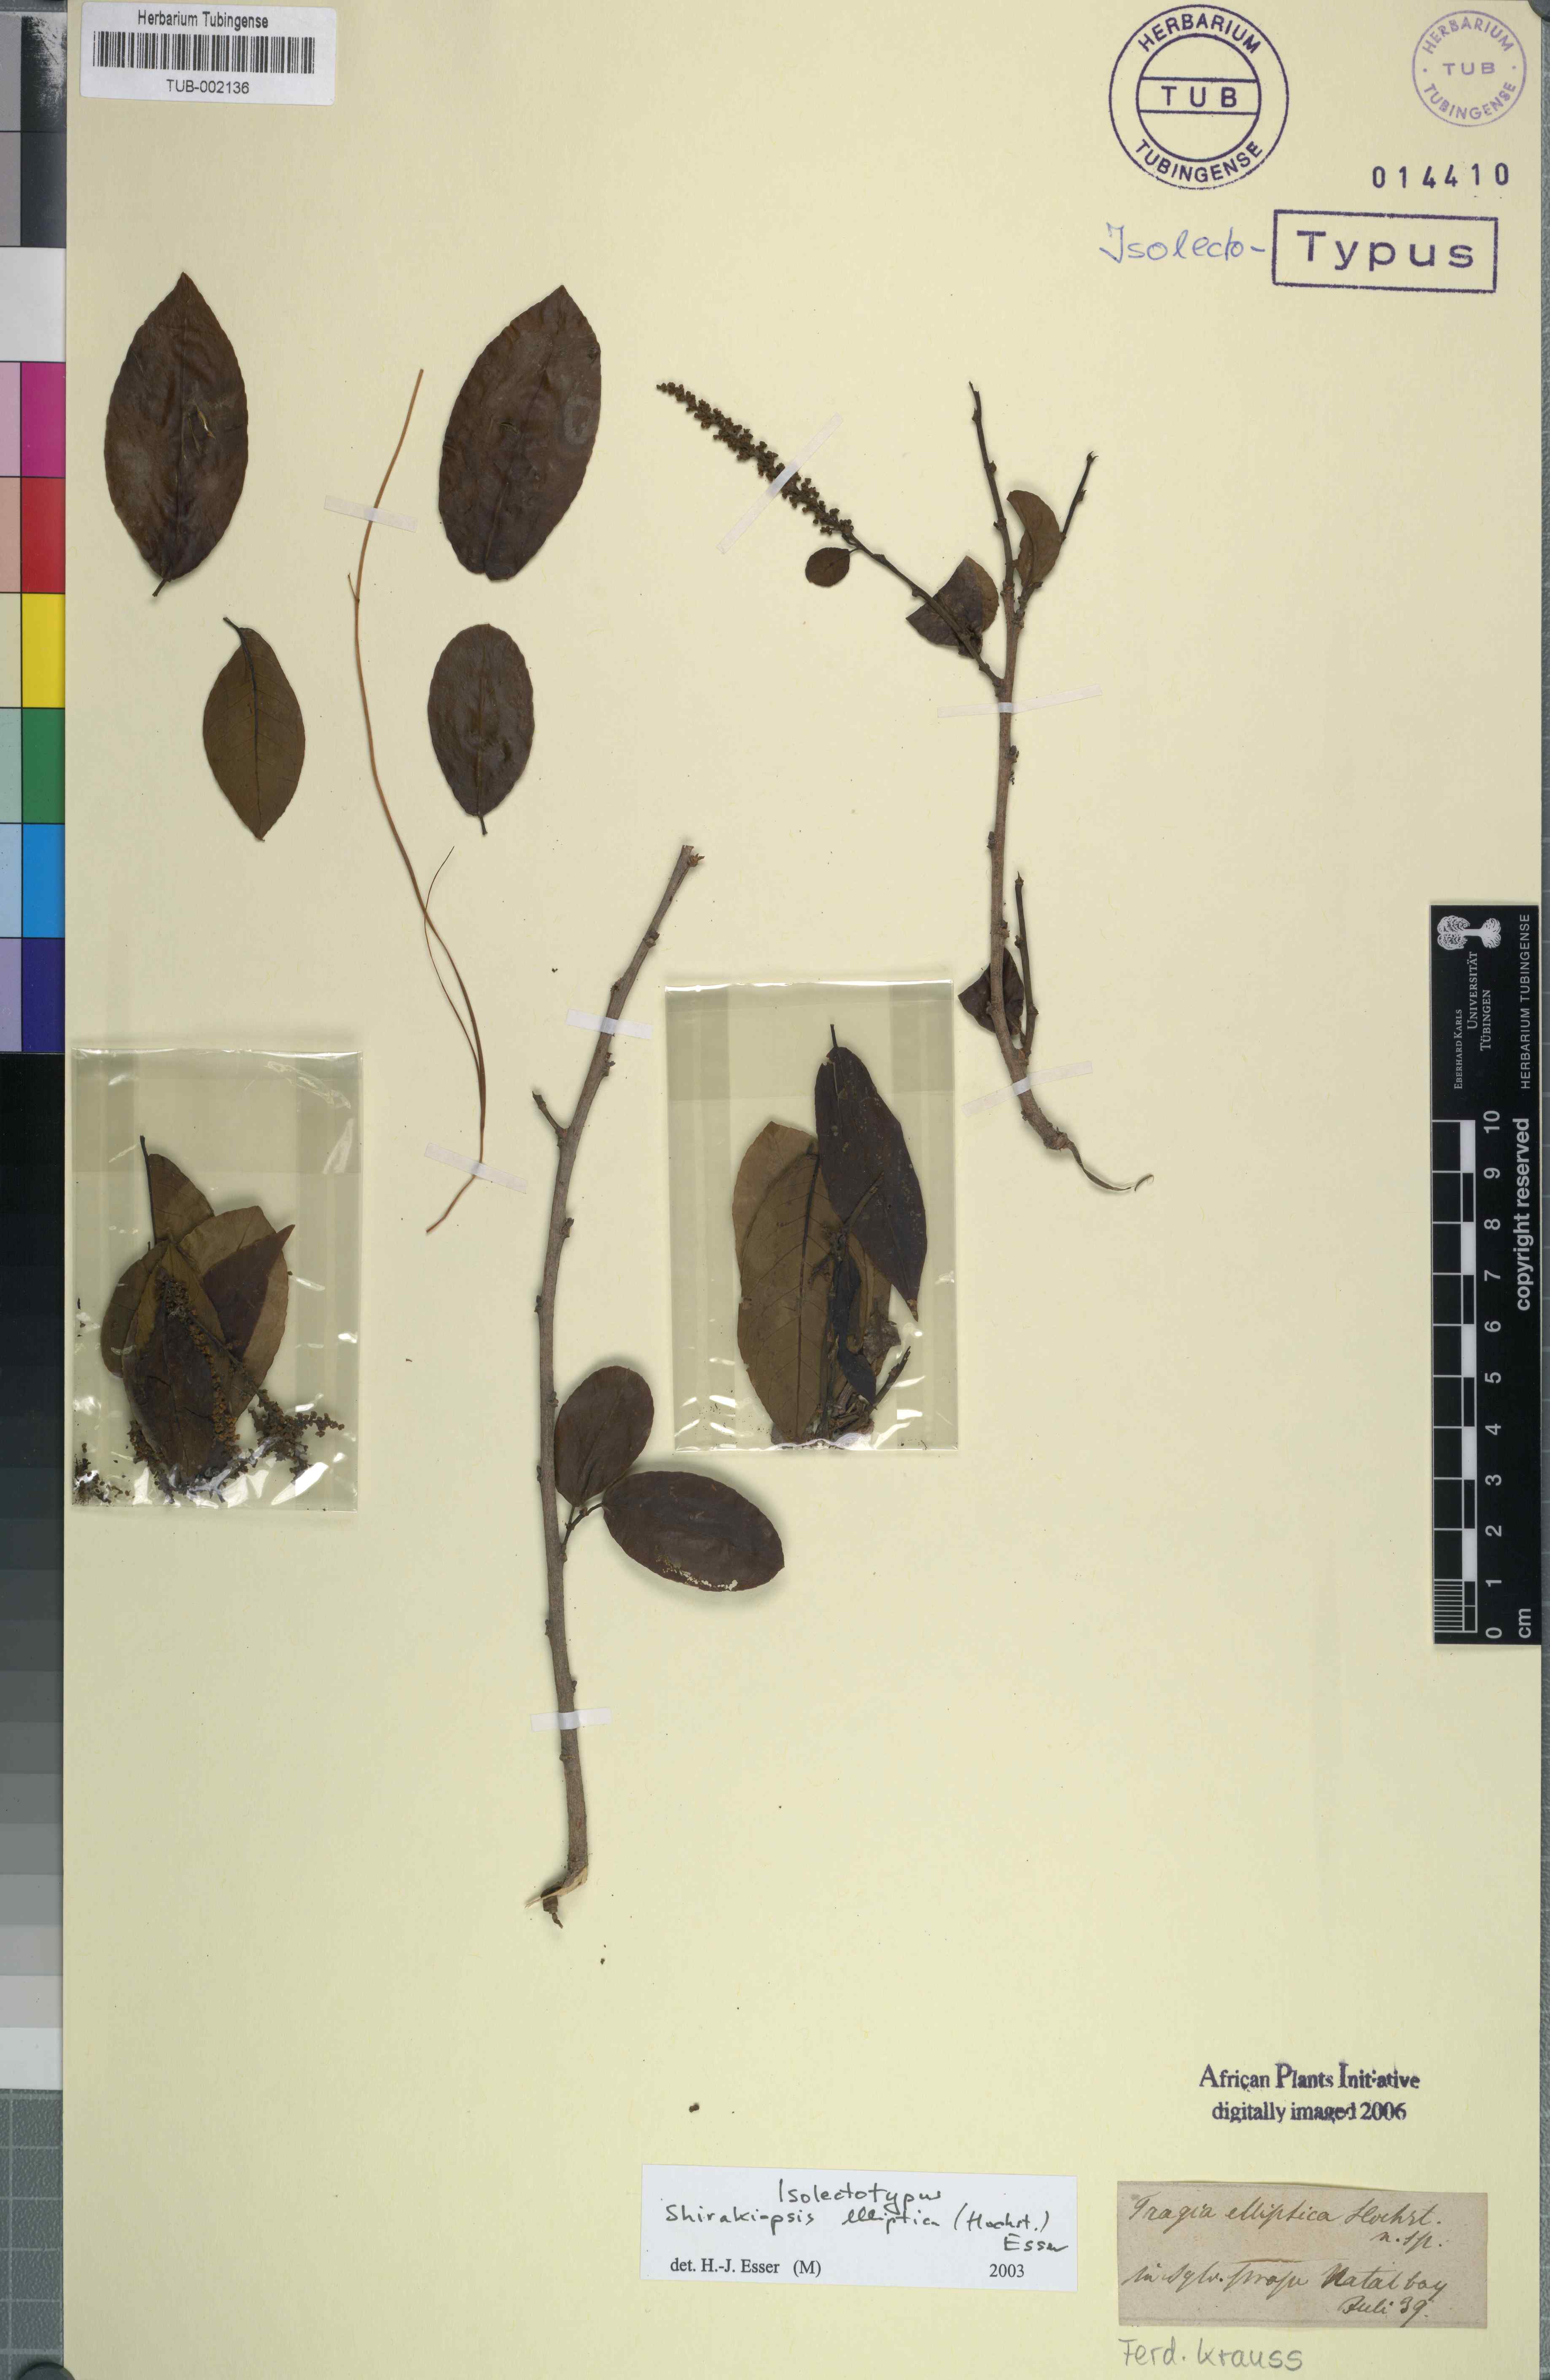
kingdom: Plantae
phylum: Tracheophyta
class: Magnoliopsida
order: Malpighiales
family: Euphorbiaceae
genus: Shirakiopsis
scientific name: Shirakiopsis elliptica
